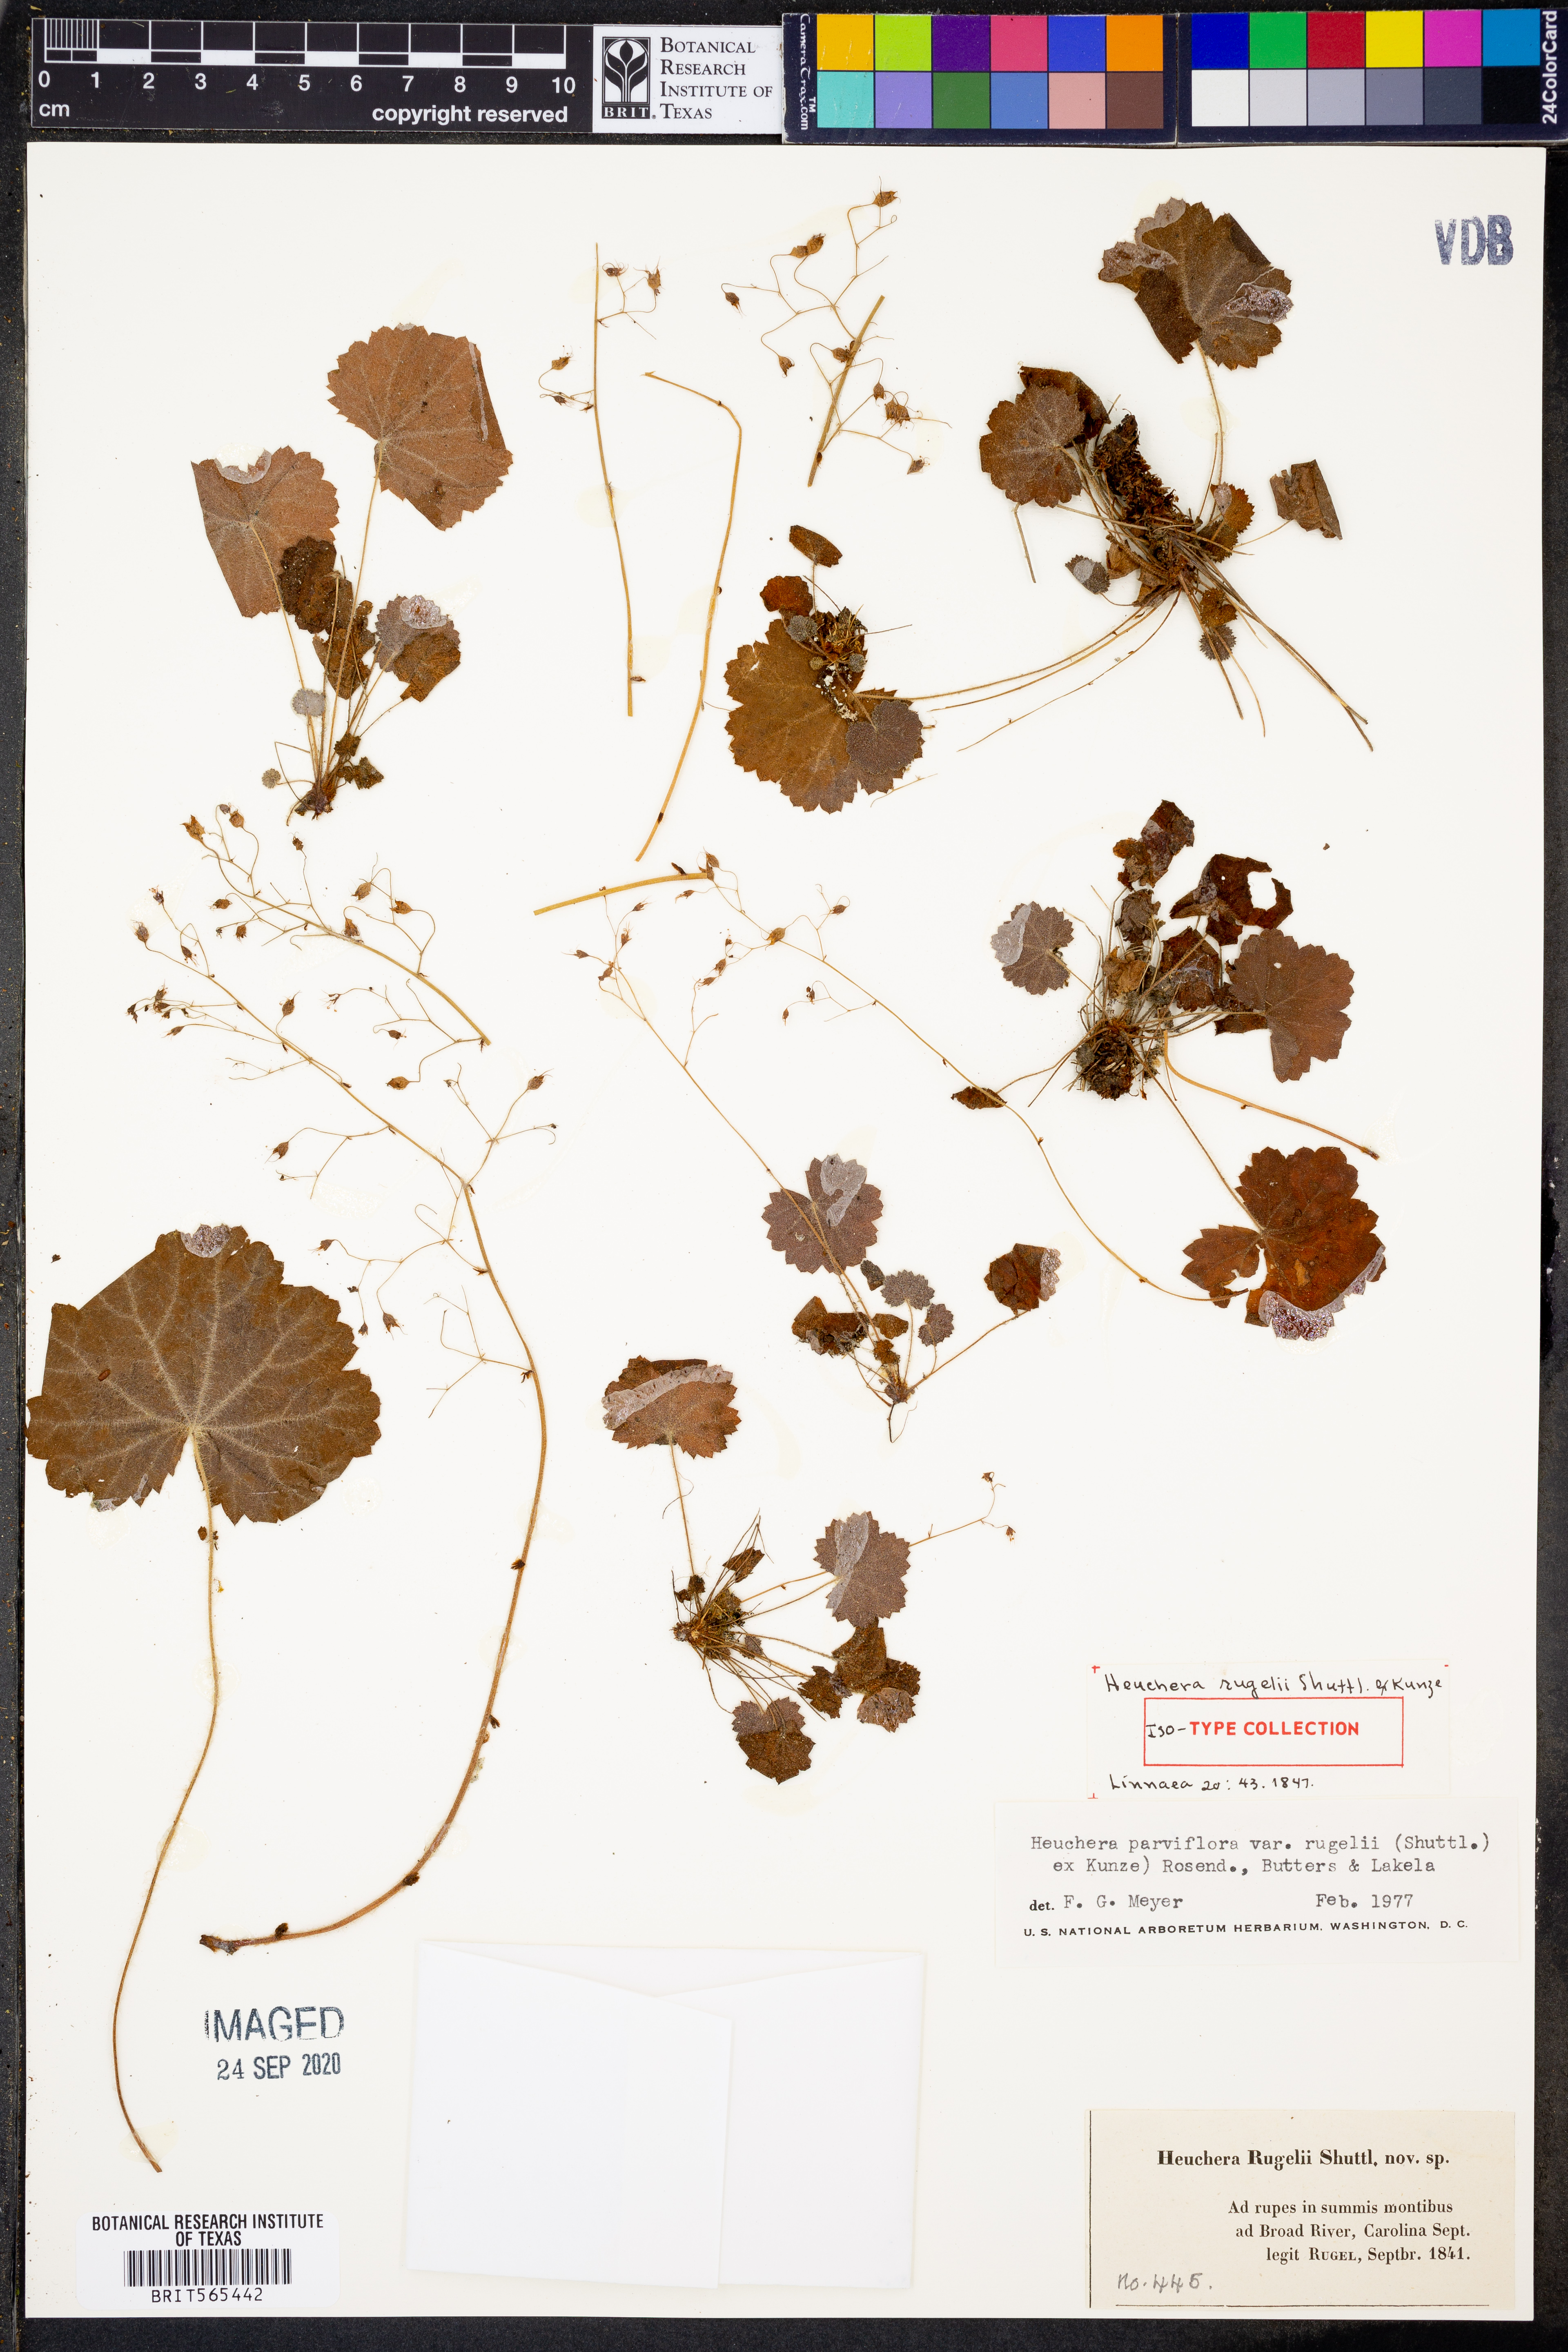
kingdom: Plantae
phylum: Tracheophyta
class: Magnoliopsida
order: Saxifragales
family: Saxifragaceae
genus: Heuchera
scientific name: Heuchera parviflora
